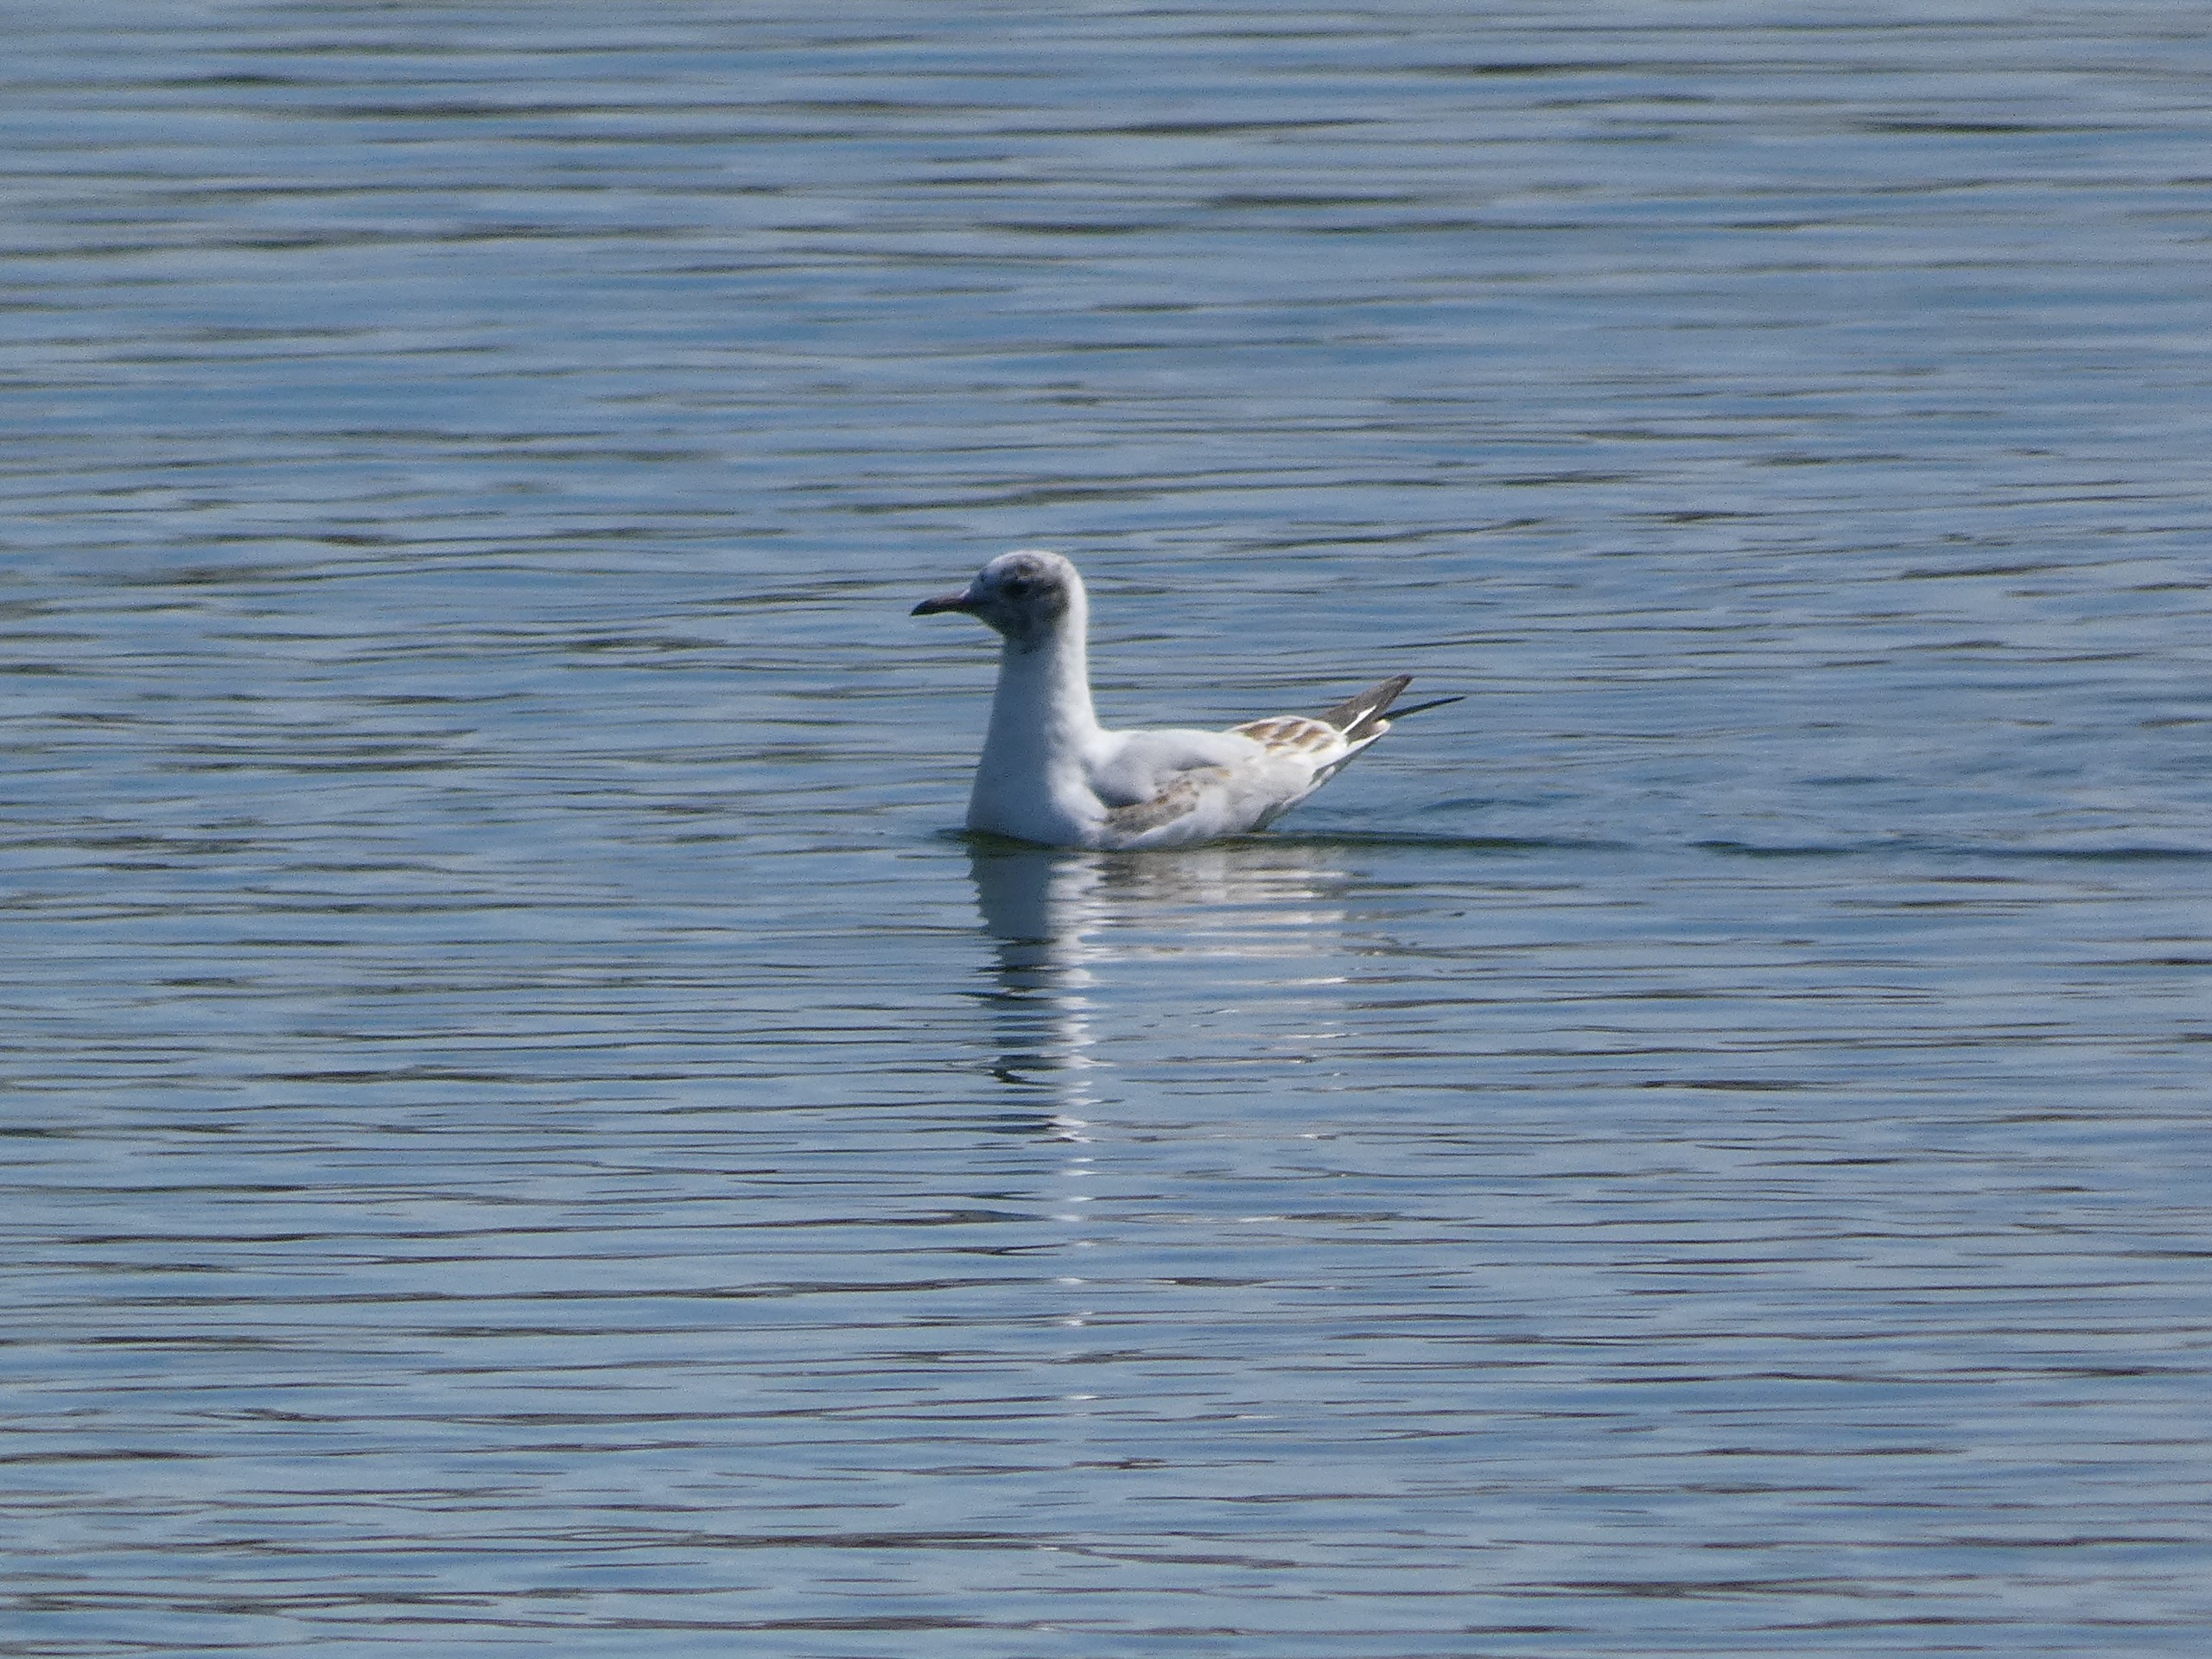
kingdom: Animalia
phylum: Chordata
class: Aves
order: Charadriiformes
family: Laridae
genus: Chroicocephalus
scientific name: Chroicocephalus ridibundus
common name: Hættemåge
